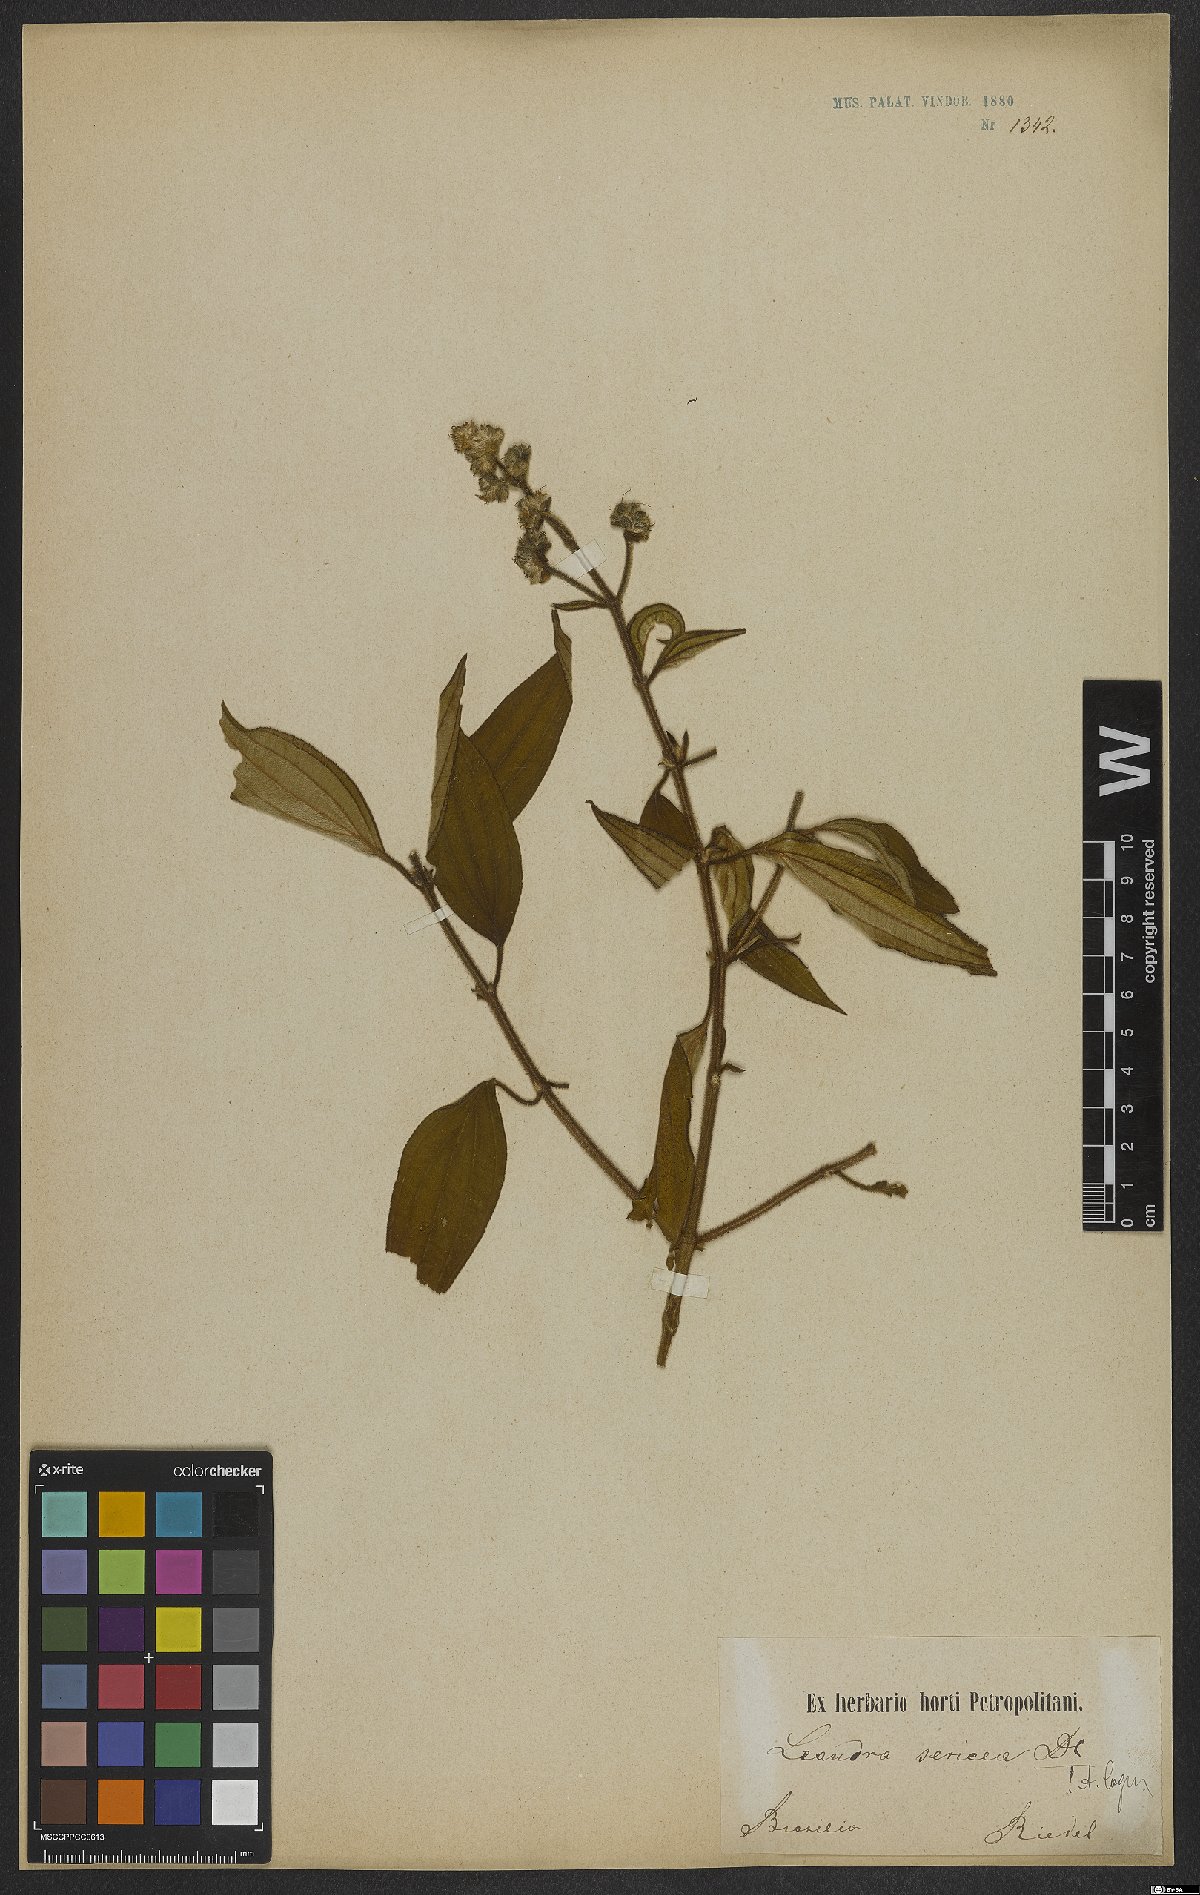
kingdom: Plantae
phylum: Tracheophyta
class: Magnoliopsida
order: Myrtales
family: Melastomataceae
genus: Miconia
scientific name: Miconia raddii
